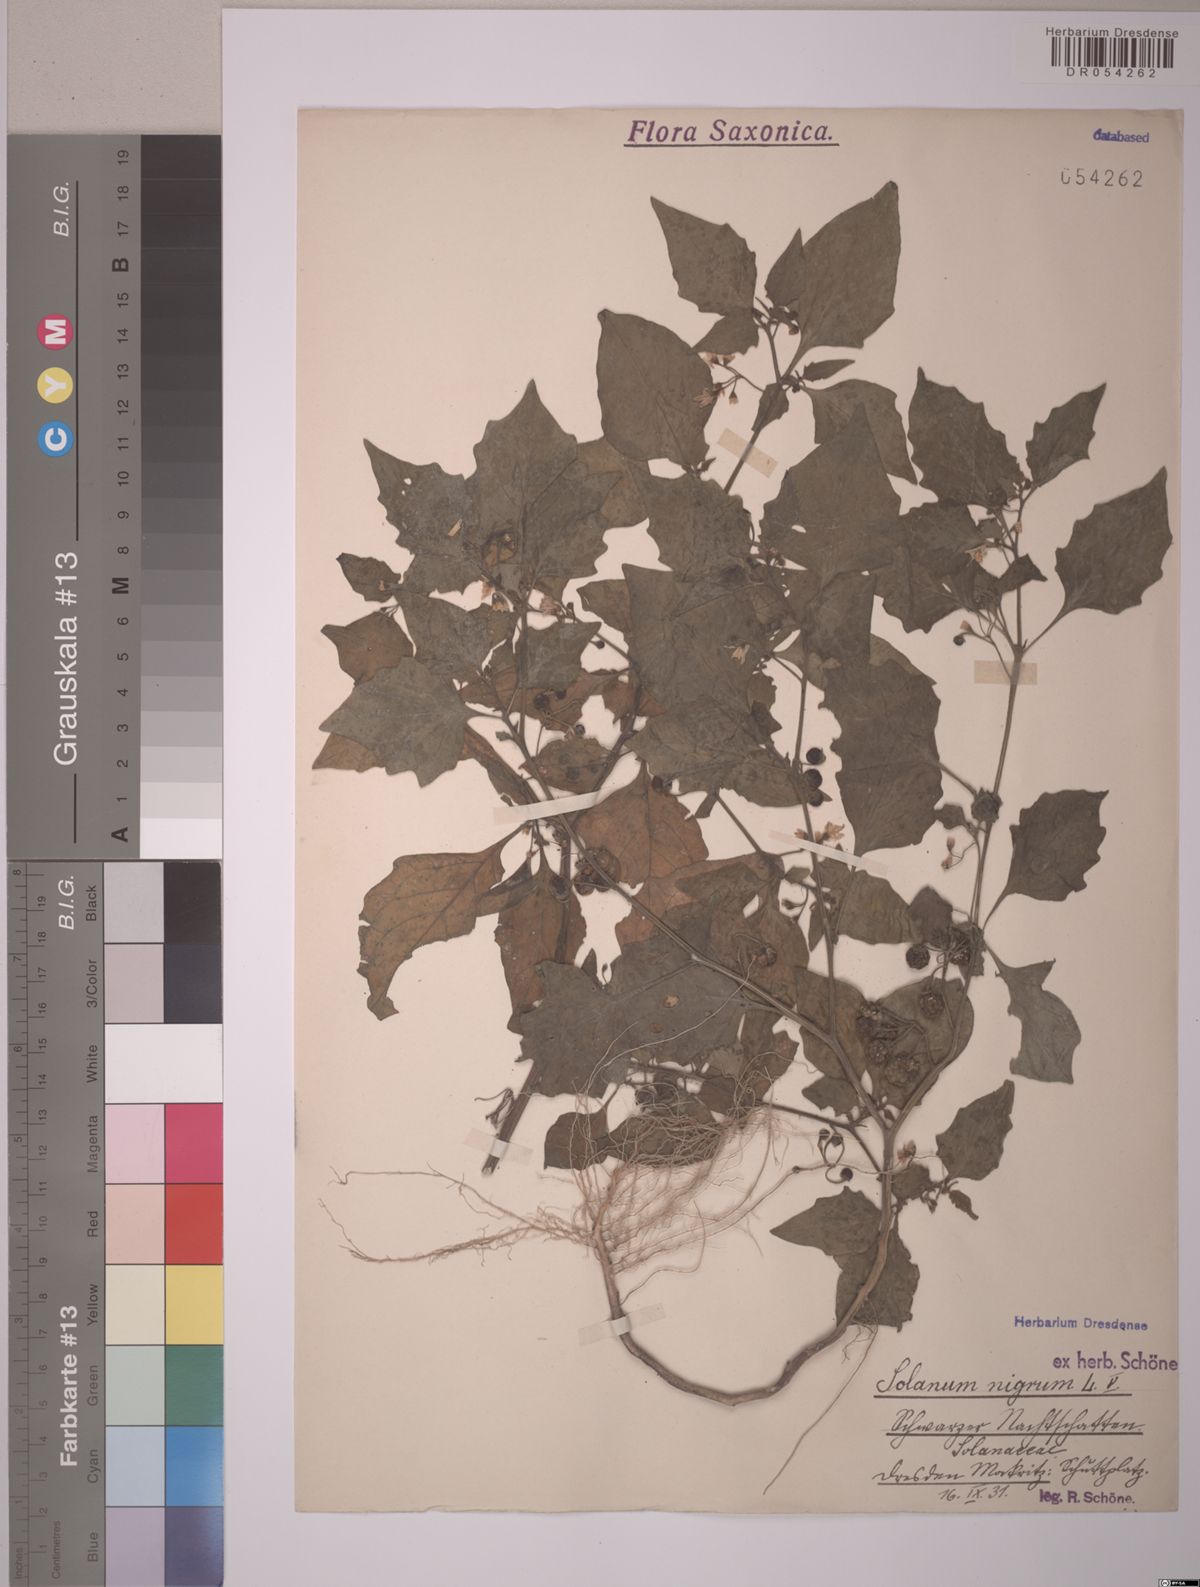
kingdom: Plantae
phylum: Tracheophyta
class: Magnoliopsida
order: Solanales
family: Solanaceae
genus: Solanum
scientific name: Solanum nigrum
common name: Black nightshade
